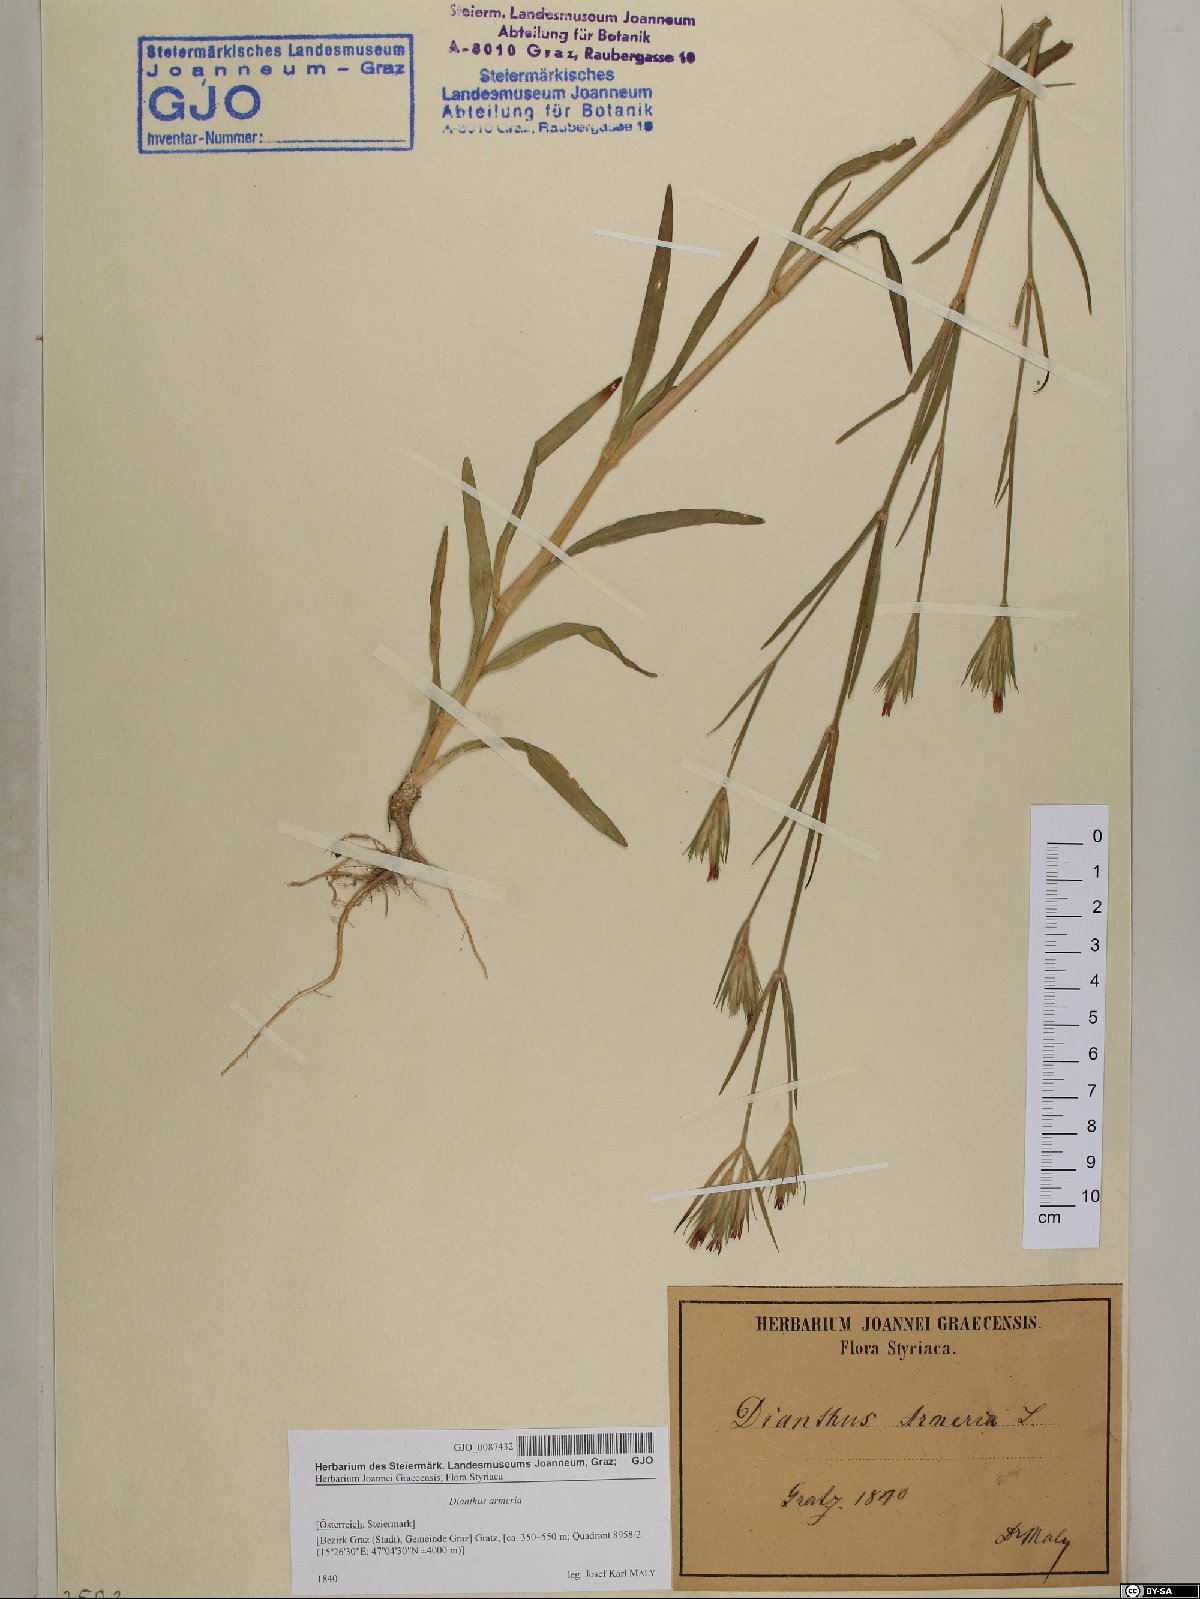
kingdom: Plantae
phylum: Tracheophyta
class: Magnoliopsida
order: Caryophyllales
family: Caryophyllaceae
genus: Dianthus
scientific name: Dianthus armeria
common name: Deptford pink
